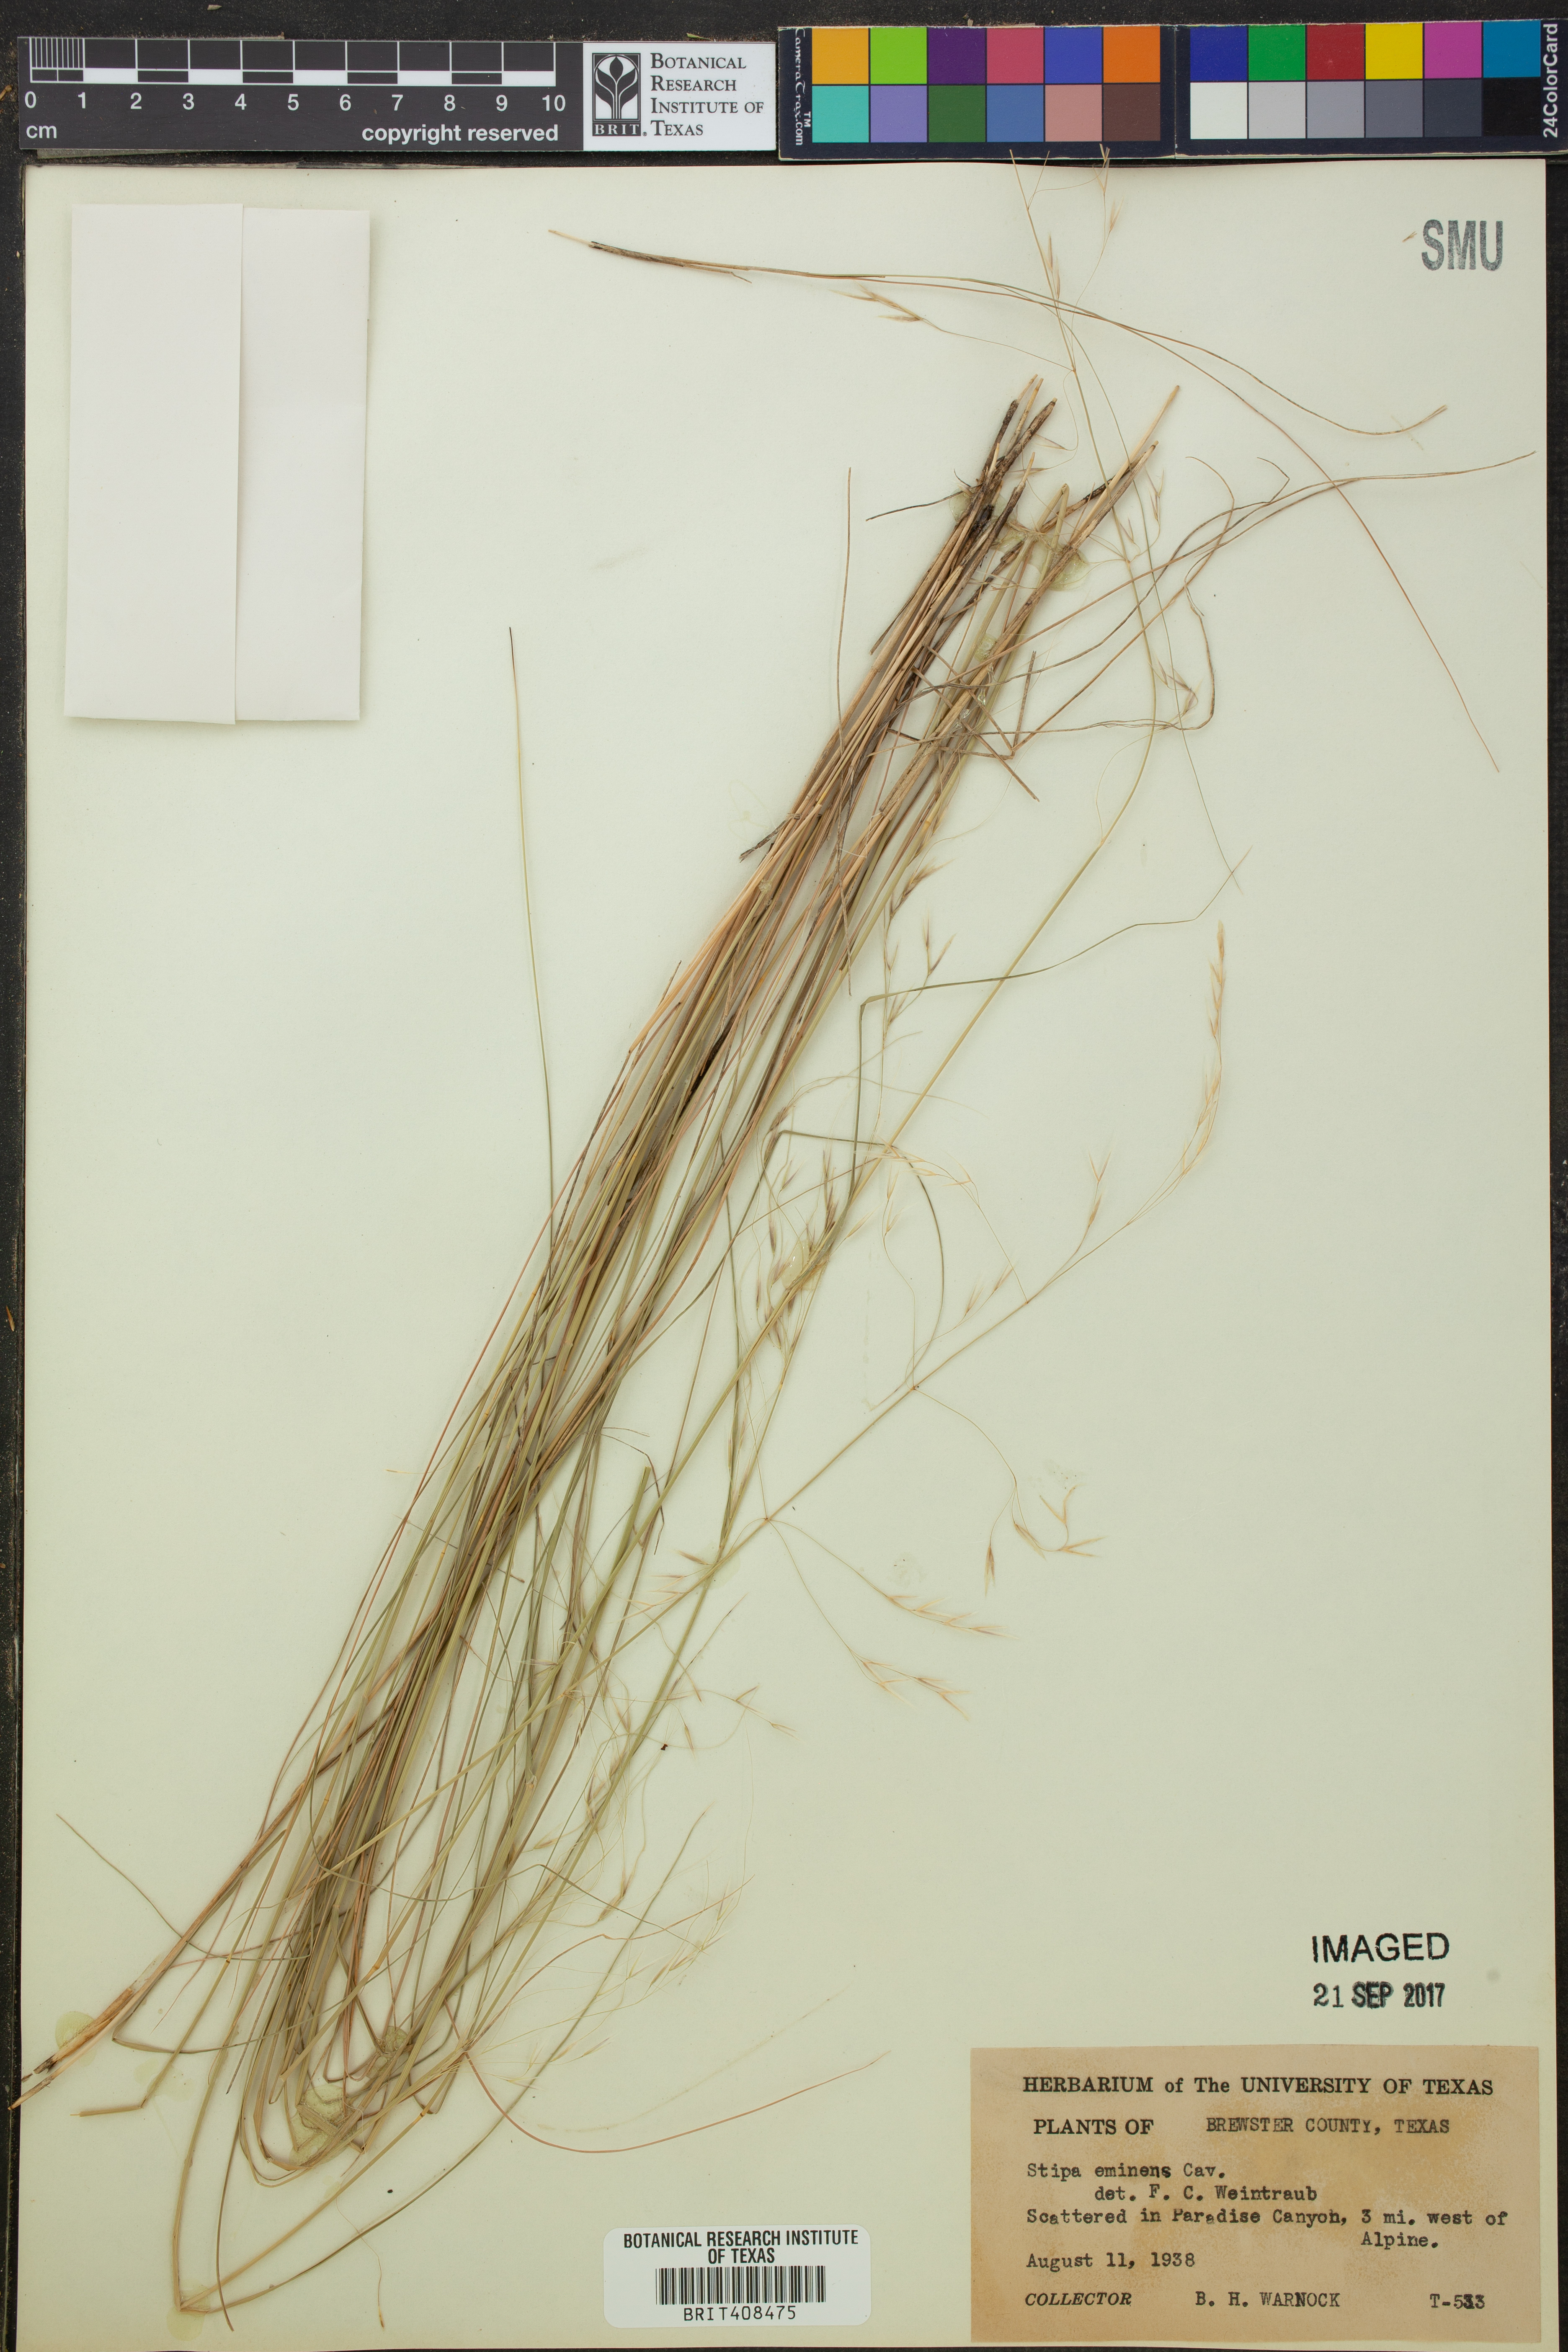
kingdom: Plantae
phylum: Tracheophyta
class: Liliopsida
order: Poales
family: Poaceae
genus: Pseudoeriocoma
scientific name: Pseudoeriocoma eminens
